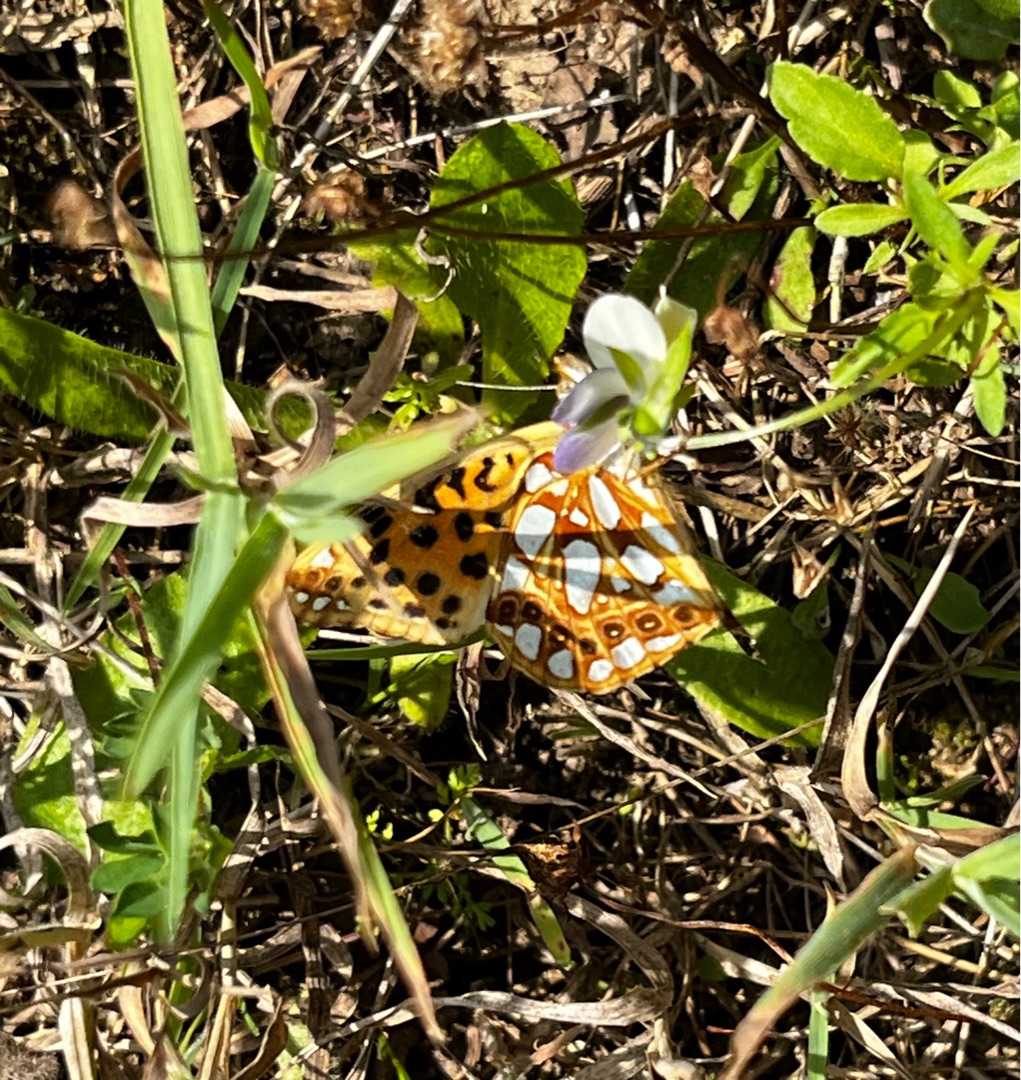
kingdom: Animalia
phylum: Arthropoda
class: Insecta
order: Lepidoptera
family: Nymphalidae
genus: Issoria
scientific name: Issoria lathonia
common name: Storplettet perlemorsommerfugl
